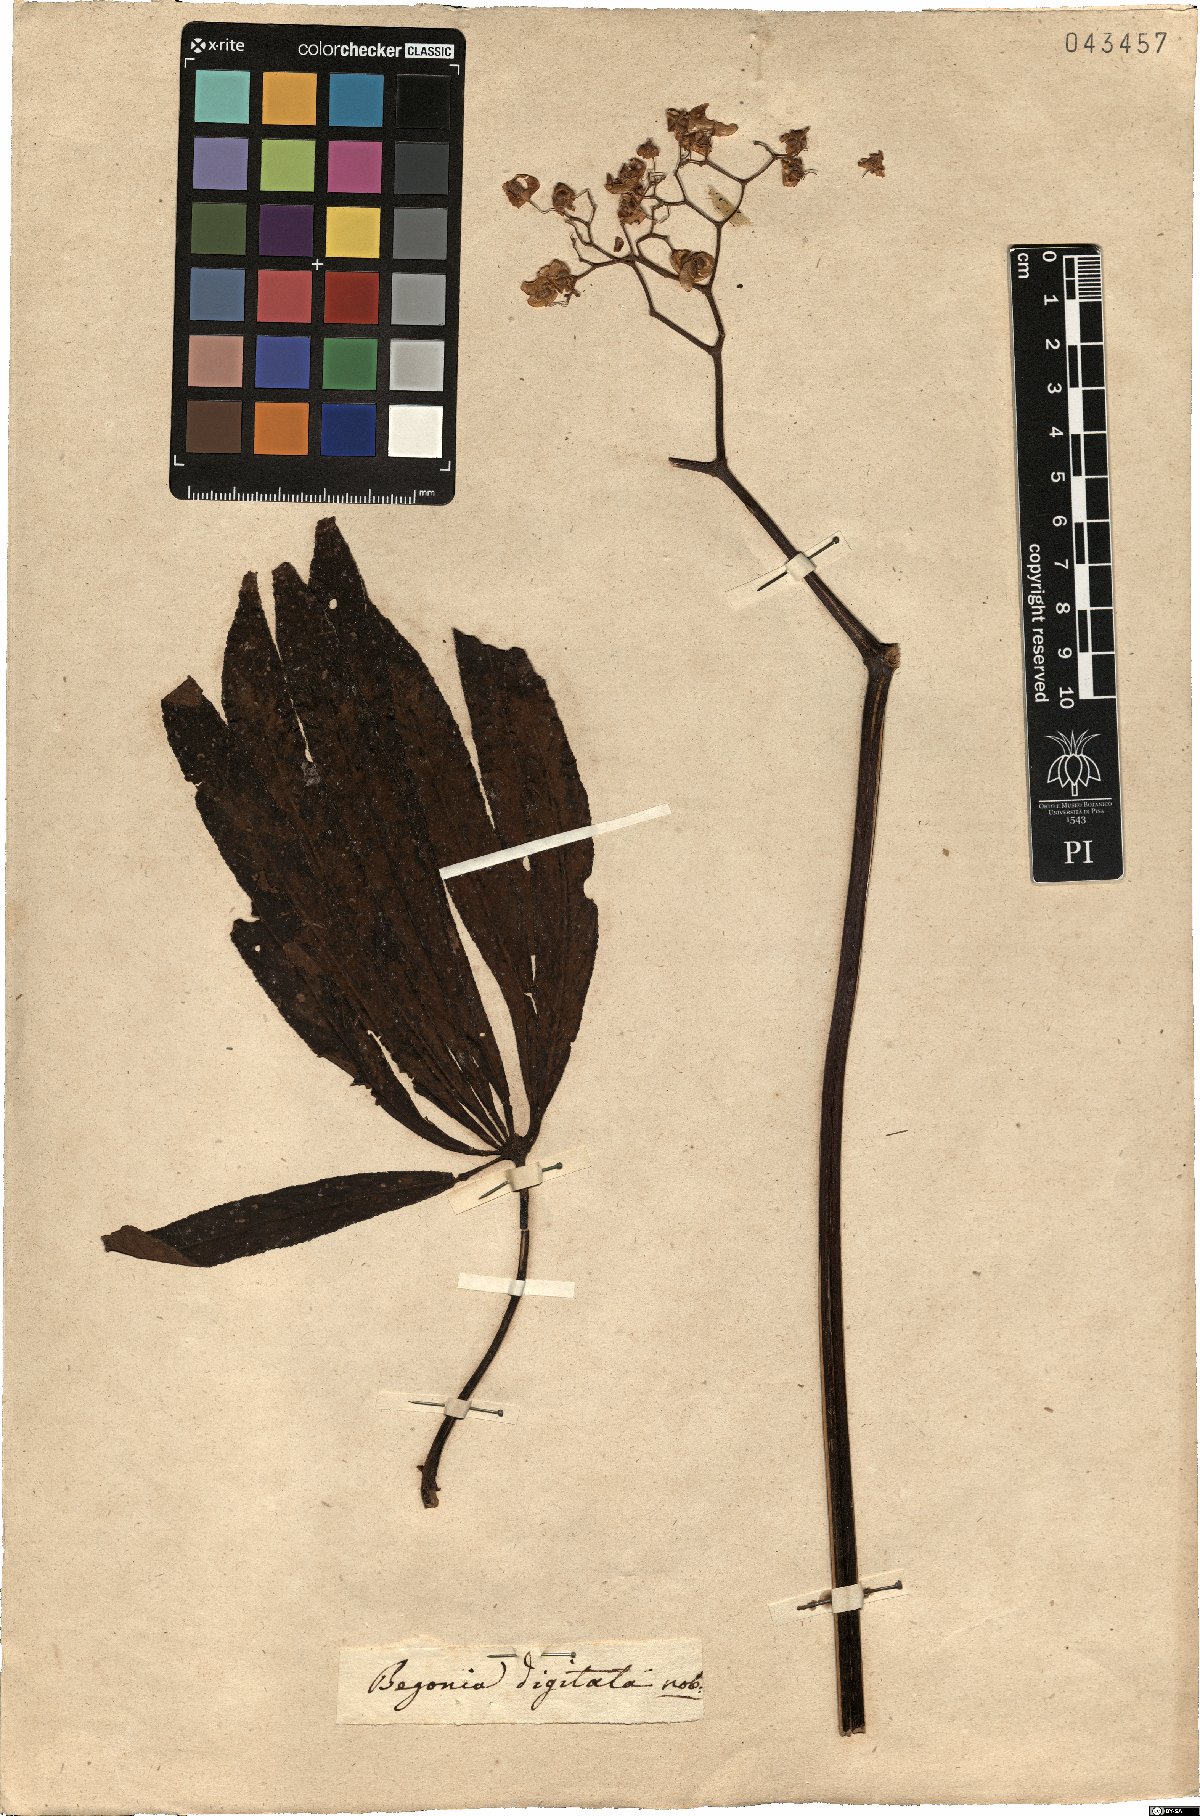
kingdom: Plantae
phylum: Tracheophyta
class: Magnoliopsida
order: Cucurbitales
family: Begoniaceae
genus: Begonia
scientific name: Begonia digitata
